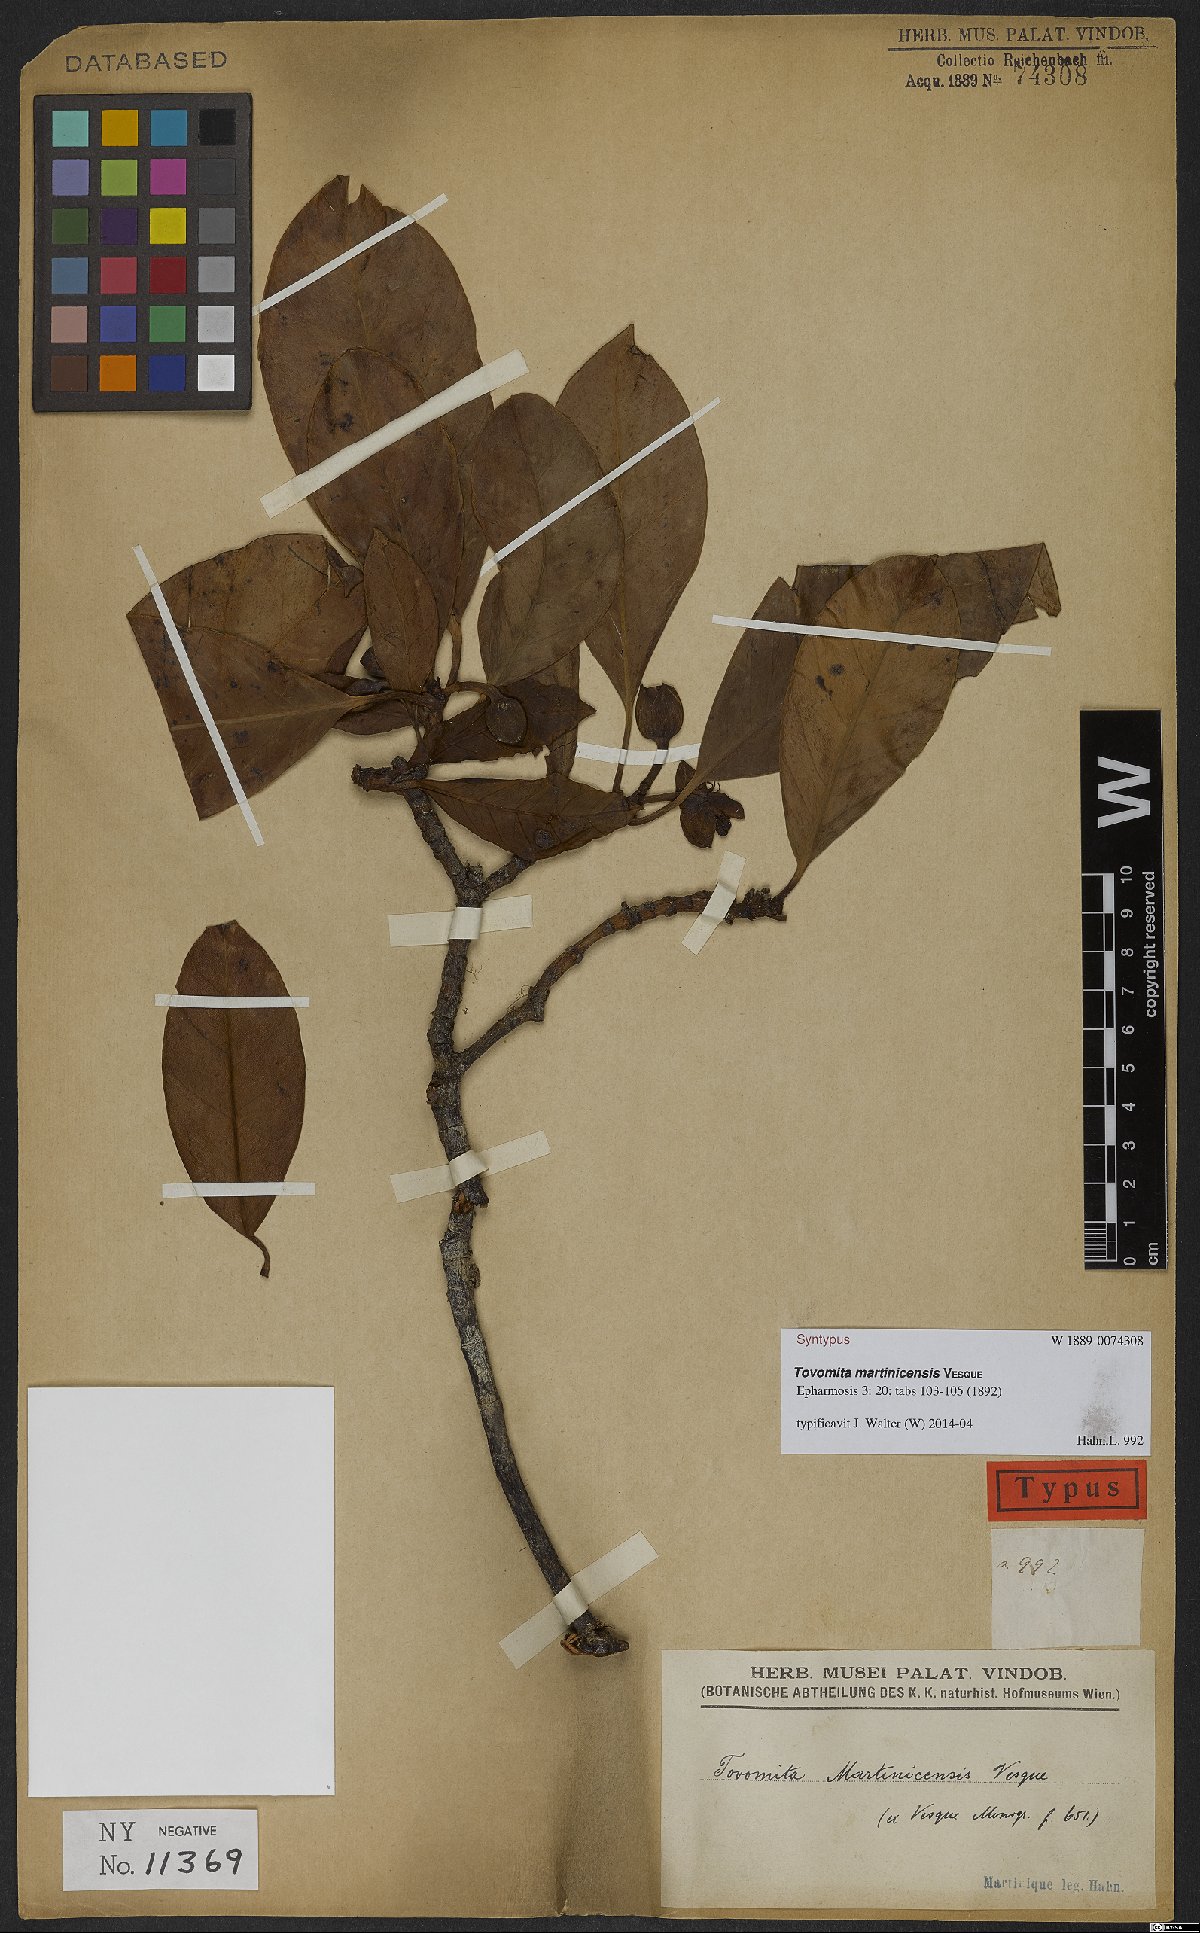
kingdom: Plantae
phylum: Tracheophyta
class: Magnoliopsida
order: Malpighiales
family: Clusiaceae
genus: Tovomita
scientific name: Tovomita plumieri
